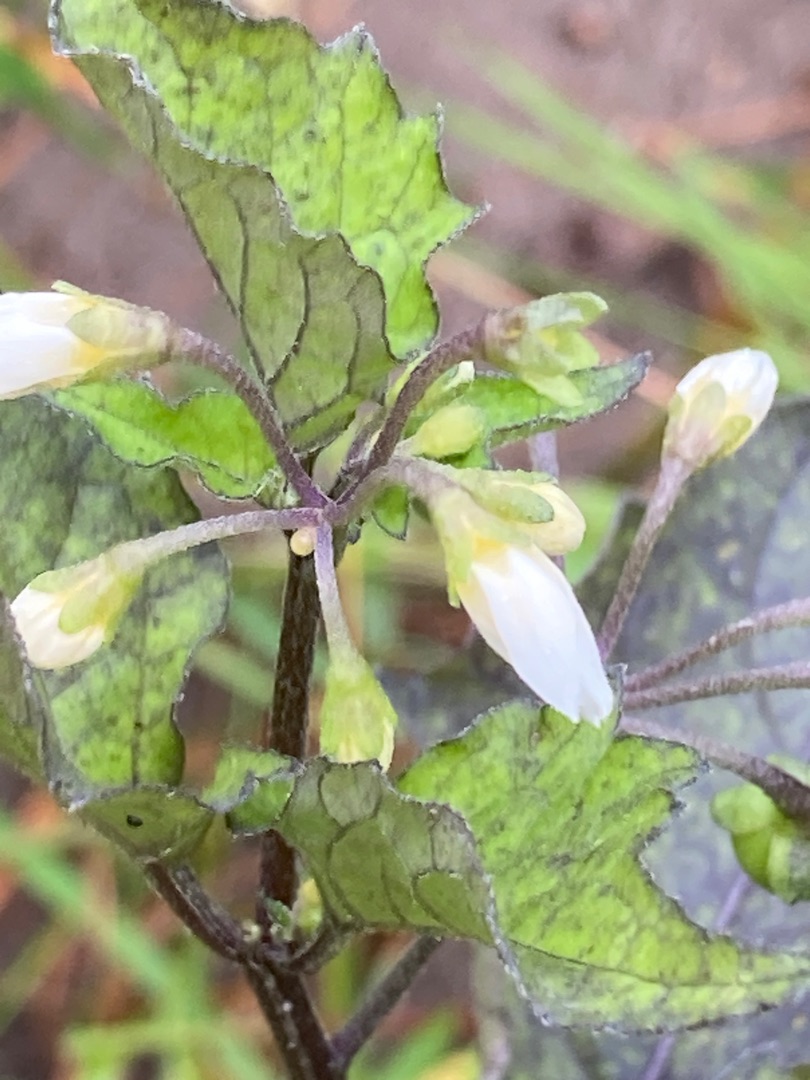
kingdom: Plantae
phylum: Tracheophyta
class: Magnoliopsida
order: Solanales
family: Solanaceae
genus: Solanum
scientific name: Solanum nigrum
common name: Sort natskygge
